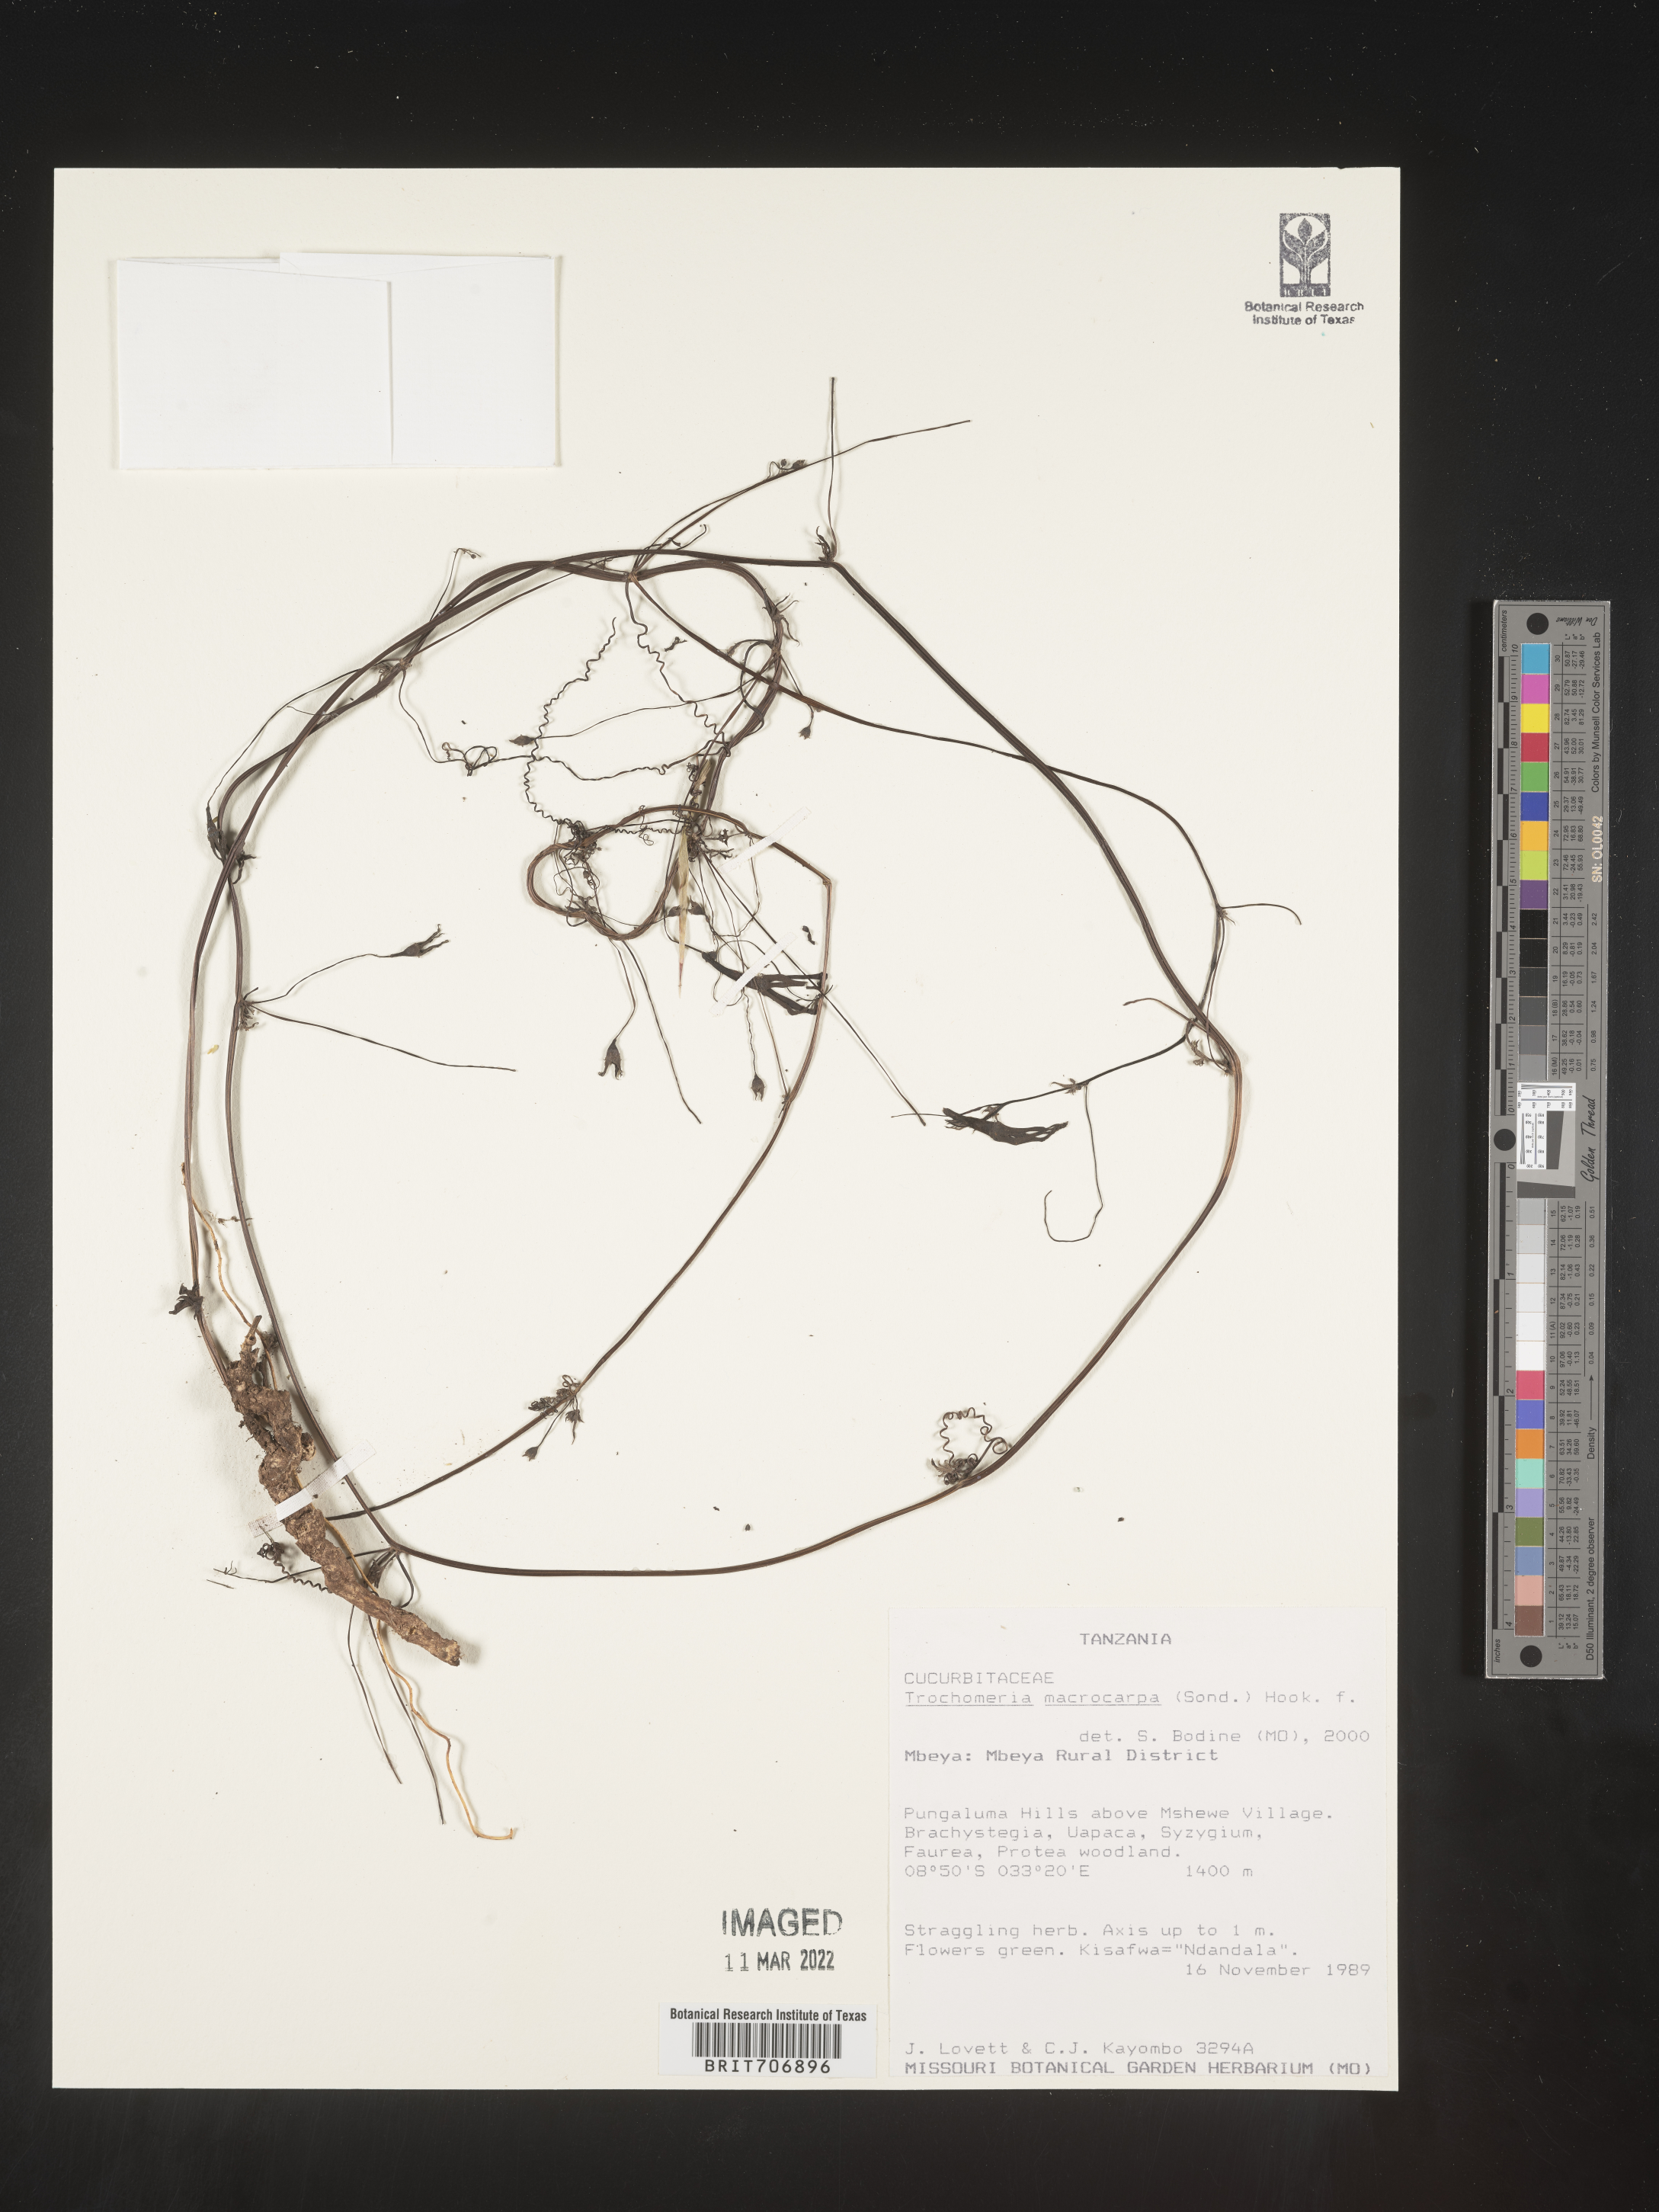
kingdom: Plantae
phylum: Tracheophyta
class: Magnoliopsida
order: Cucurbitales
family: Cucurbitaceae
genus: Trochomeria
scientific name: Trochomeria
